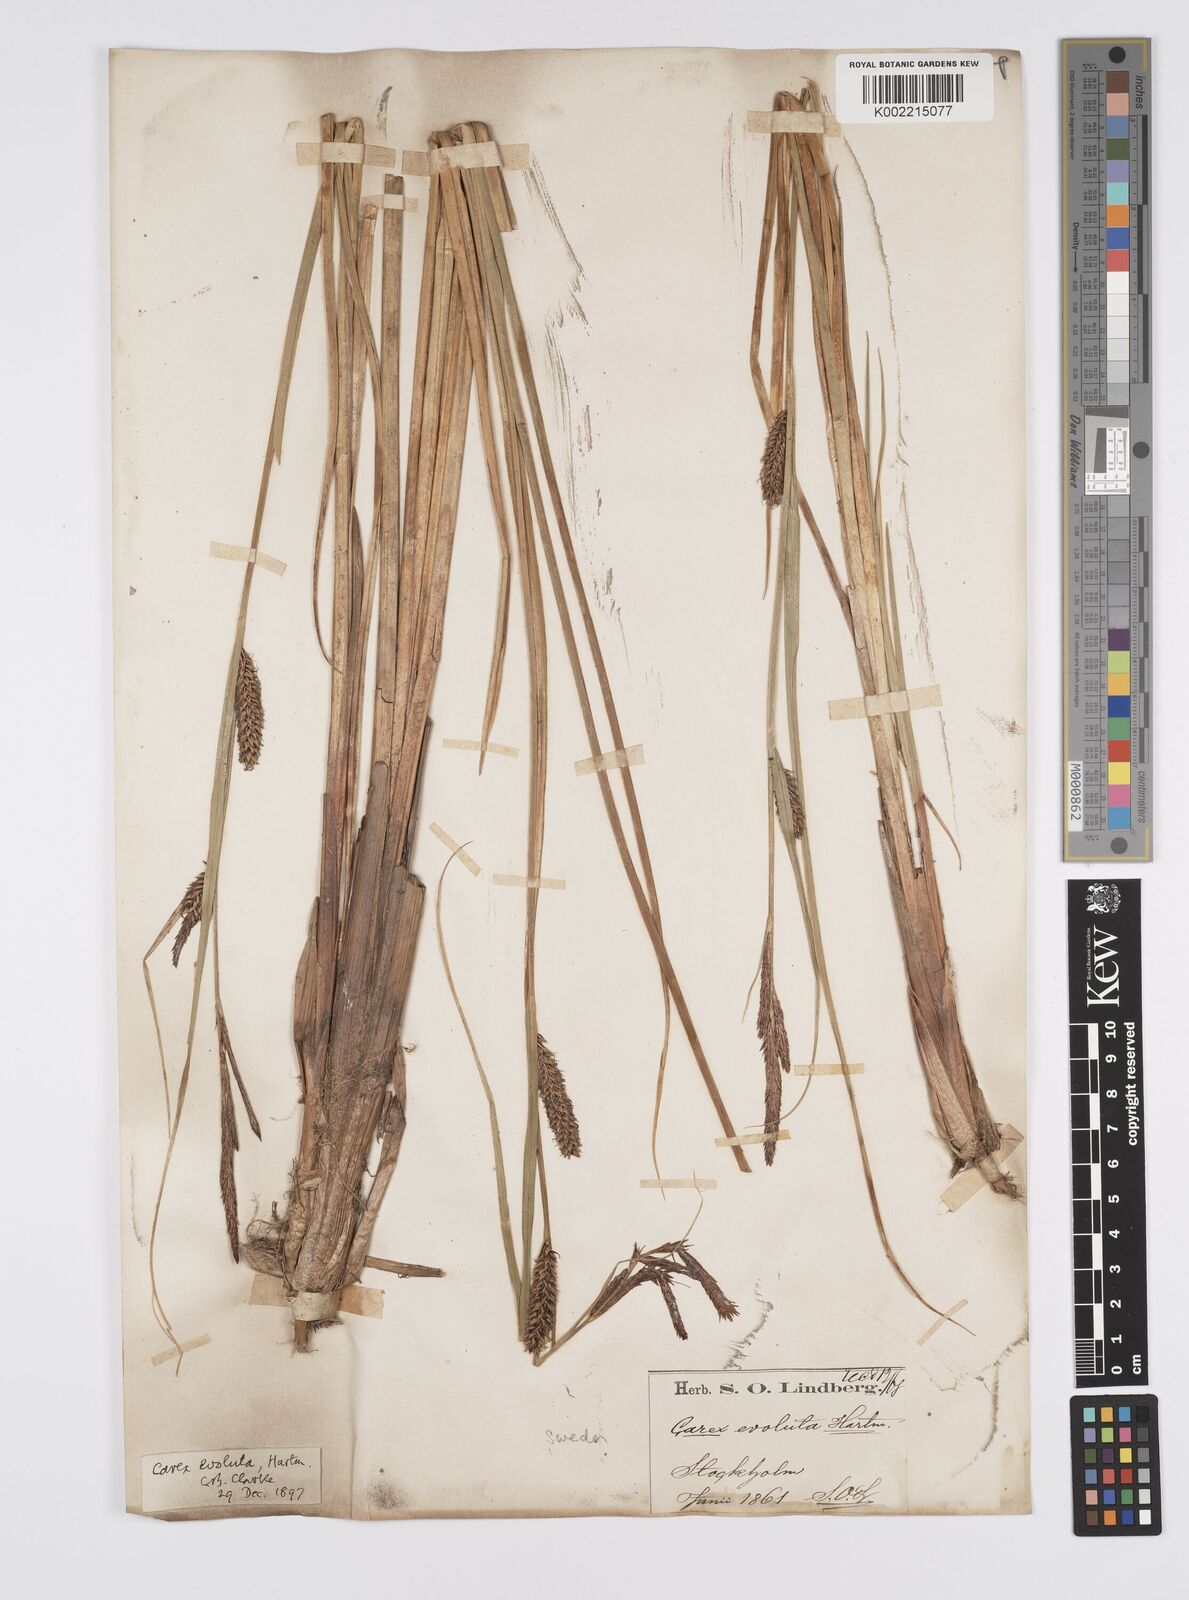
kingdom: Plantae
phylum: Tracheophyta
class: Liliopsida
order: Poales
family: Cyperaceae
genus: Carex
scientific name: Carex evoluta
